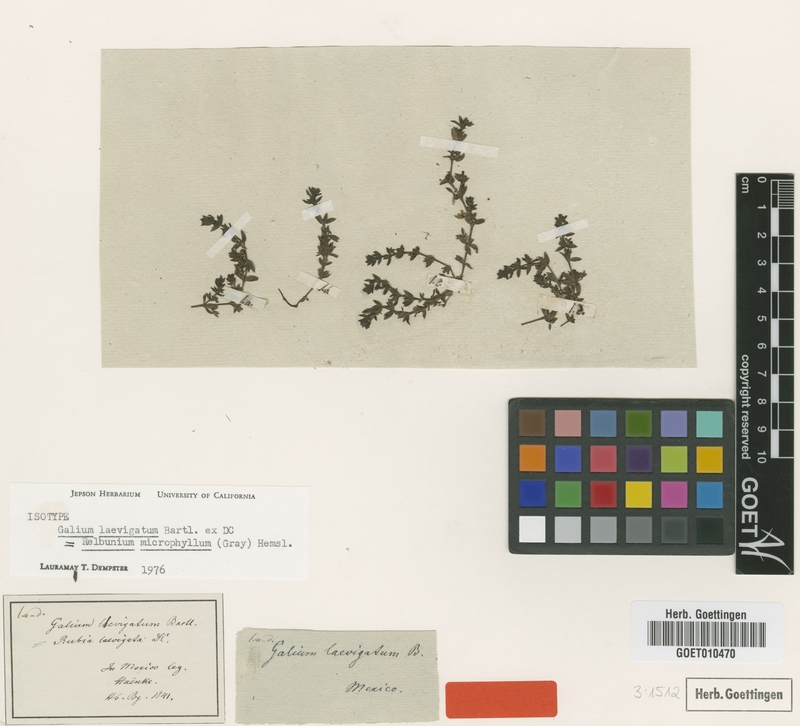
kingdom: Plantae
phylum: Tracheophyta
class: Magnoliopsida
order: Gentianales
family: Rubiaceae
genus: Galium
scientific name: Galium microphyllum
